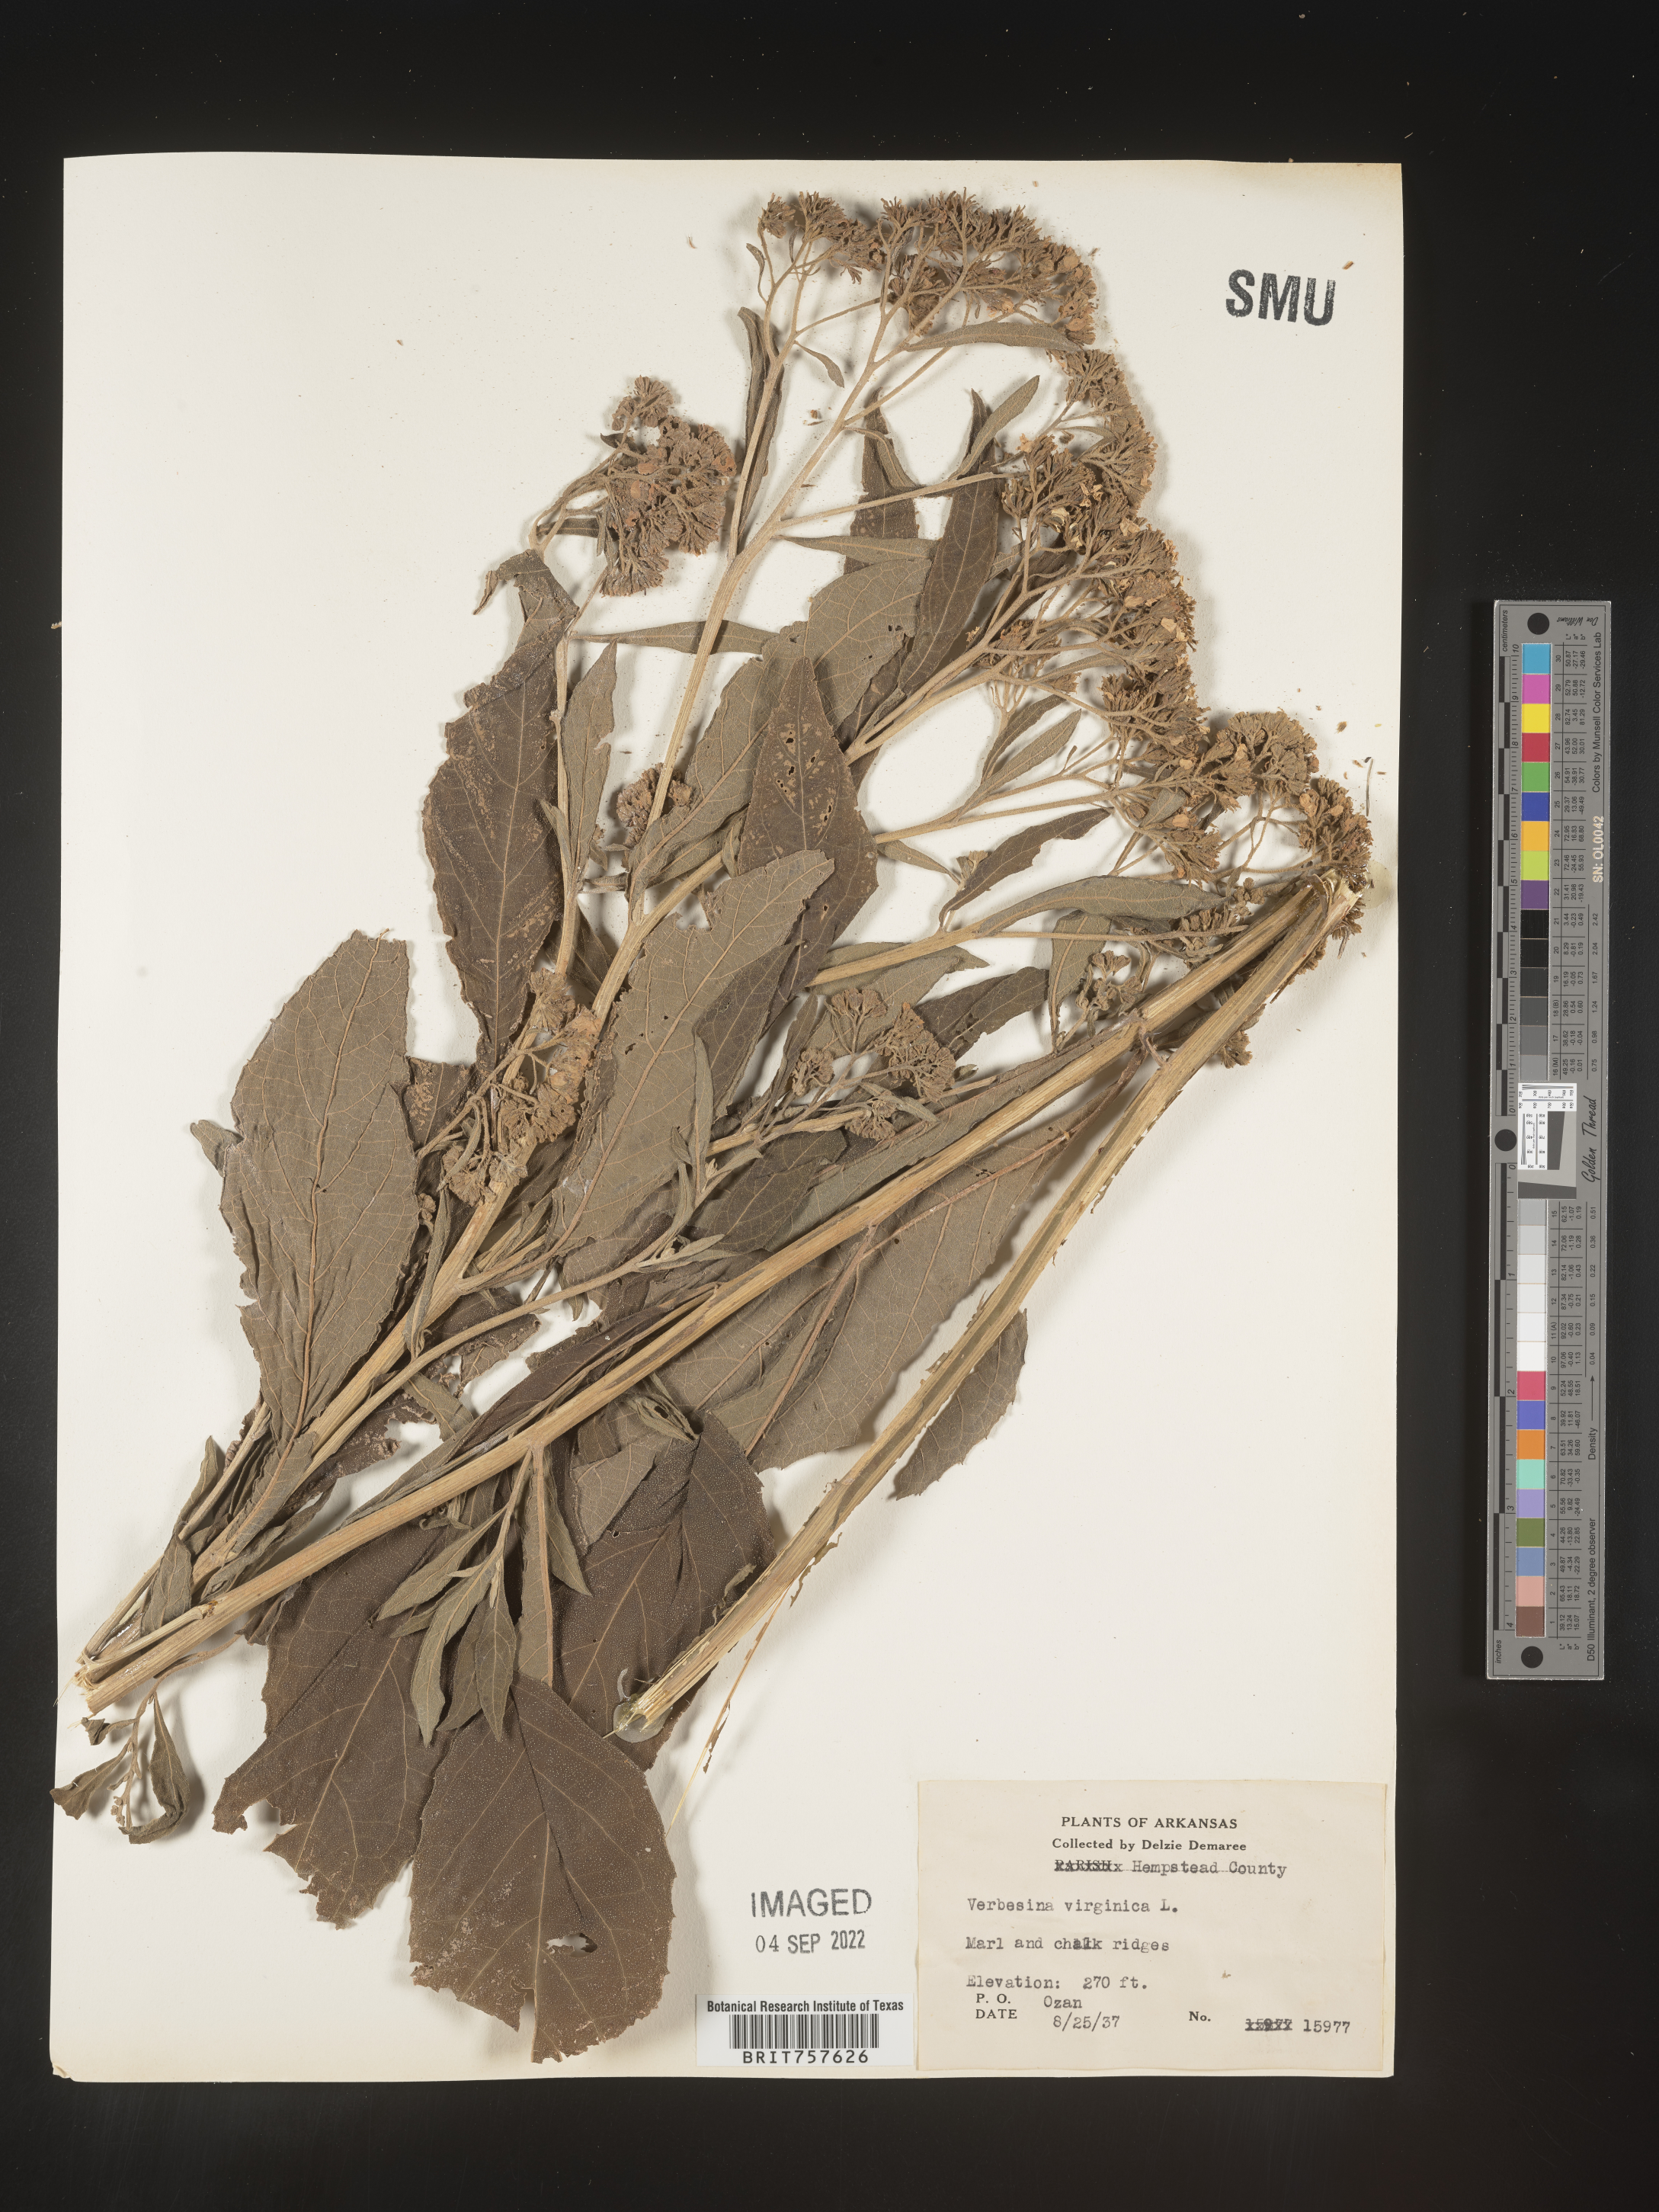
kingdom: Plantae
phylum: Tracheophyta
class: Magnoliopsida
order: Asterales
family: Asteraceae
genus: Verbesina
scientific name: Verbesina virginica
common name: Frostweed
